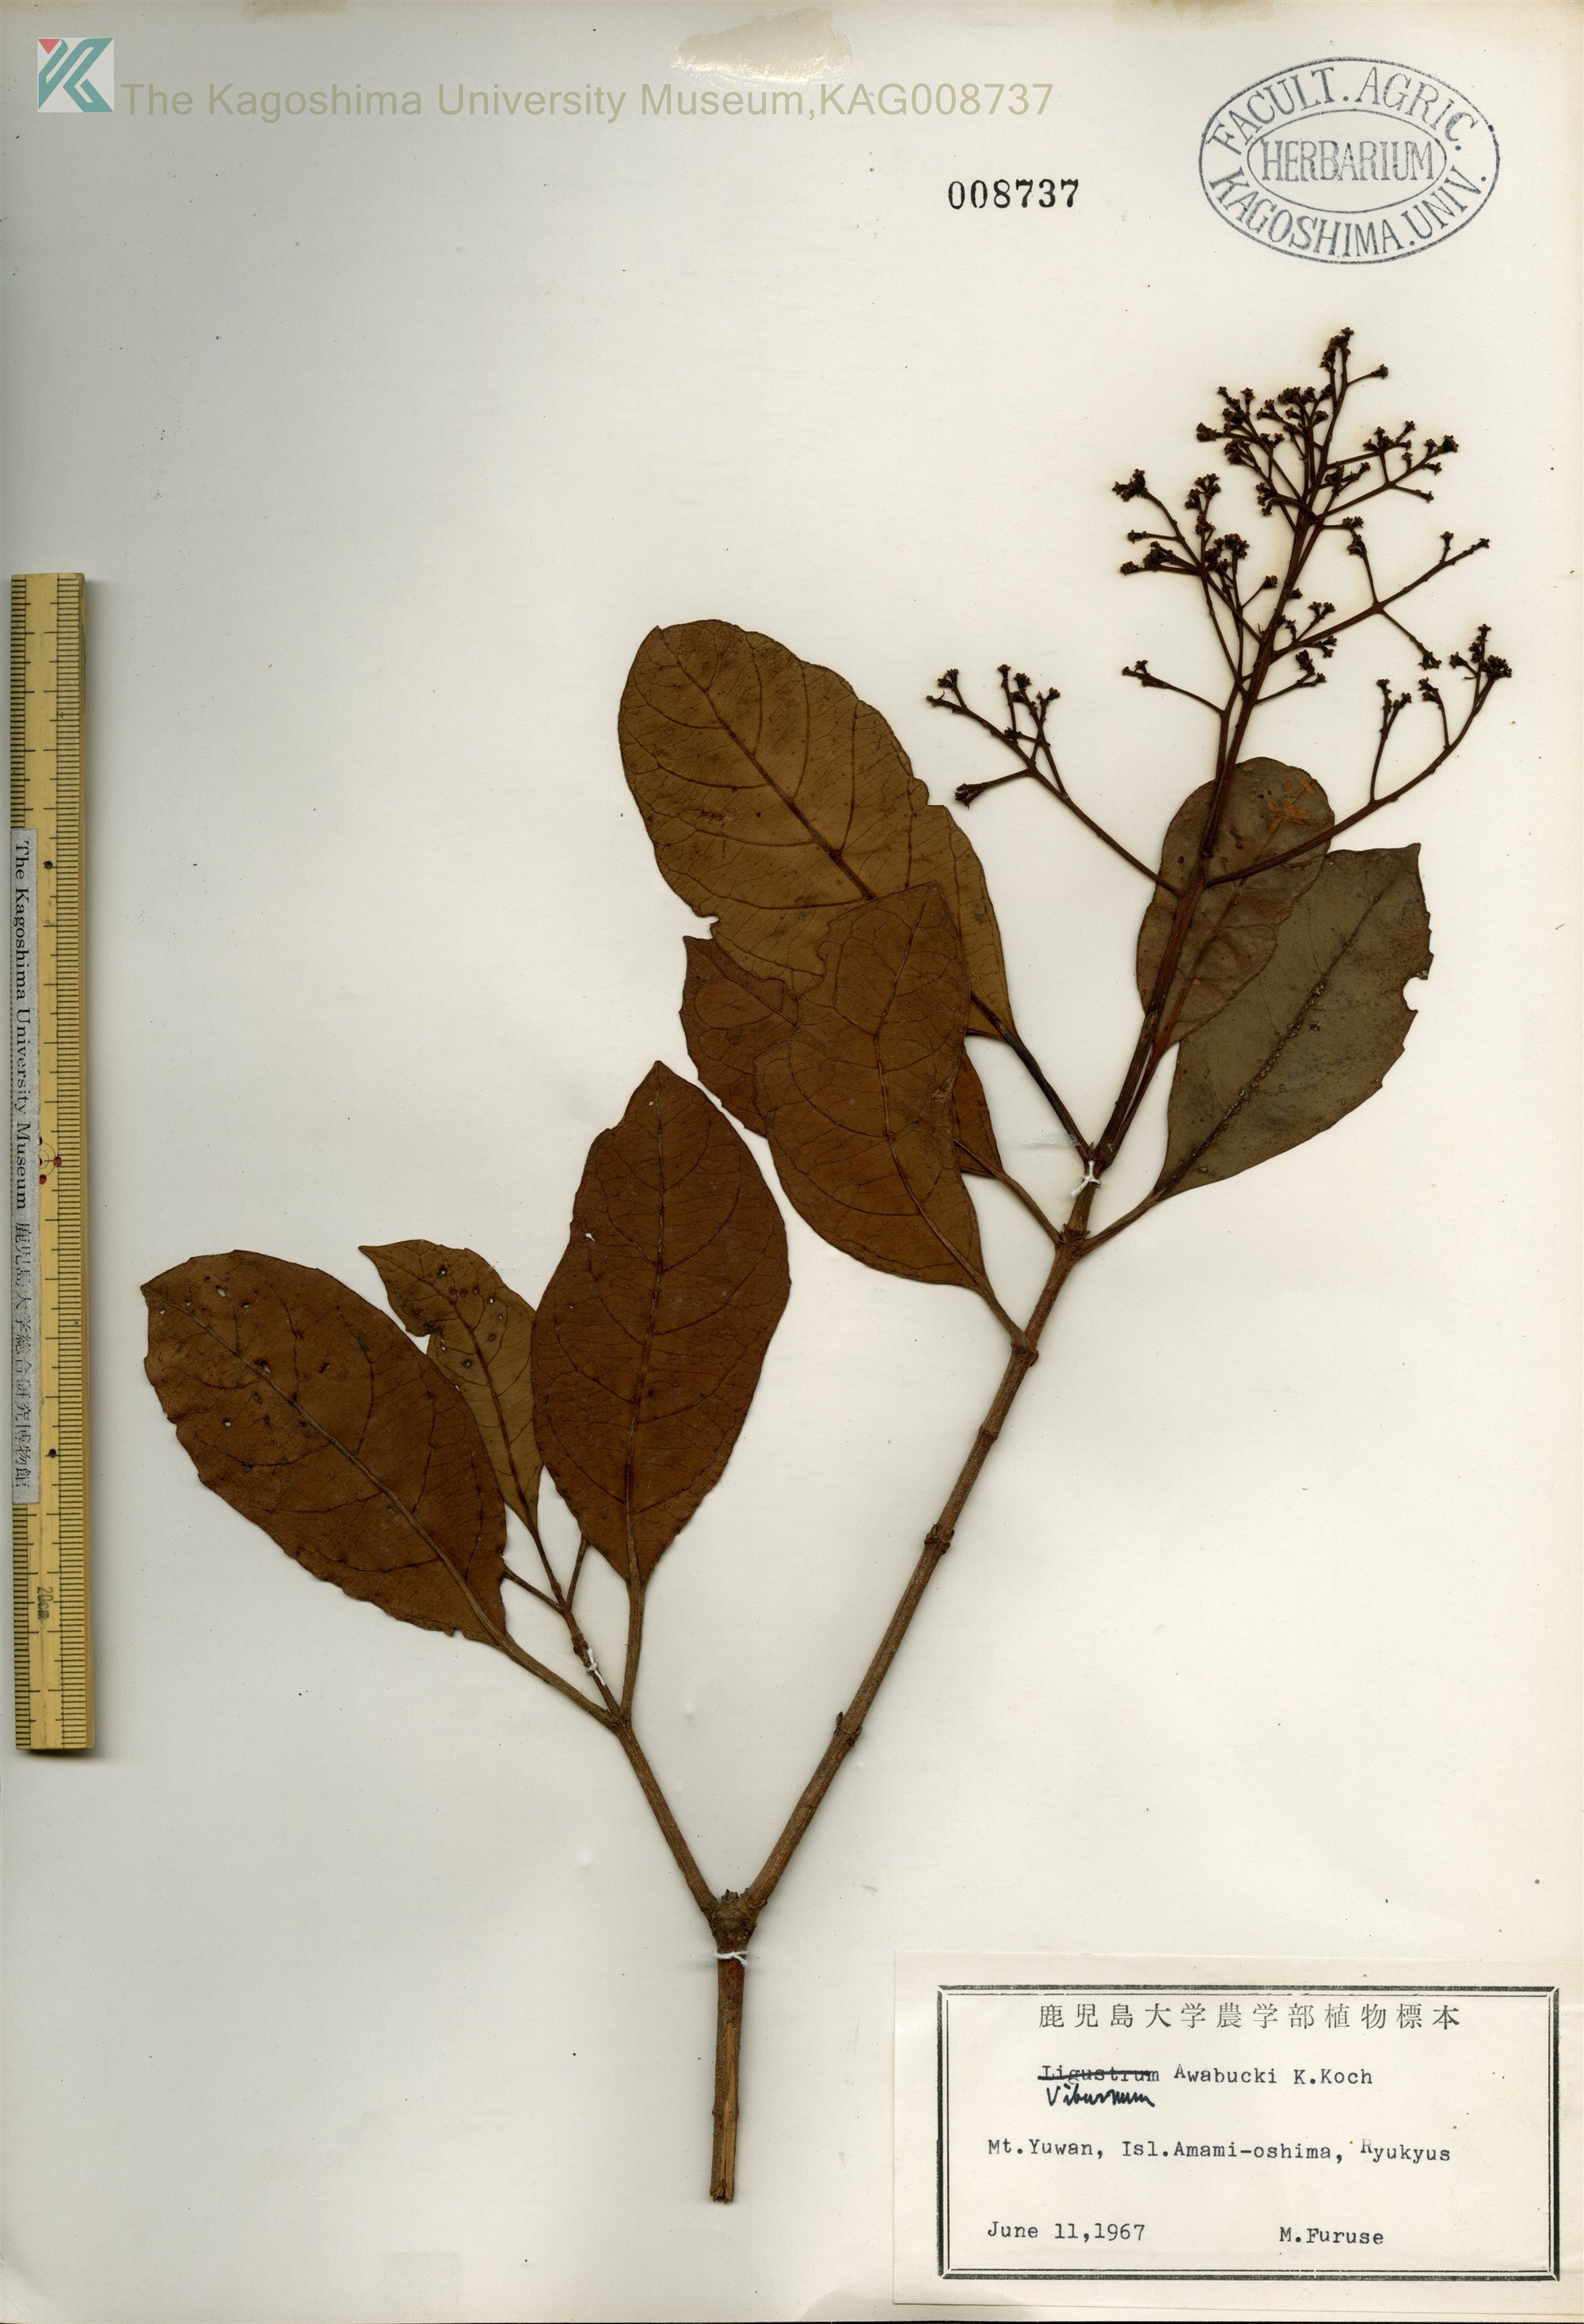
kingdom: Plantae
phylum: Tracheophyta
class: Magnoliopsida
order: Dipsacales
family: Viburnaceae
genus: Viburnum
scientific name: Viburnum odoratissimum
